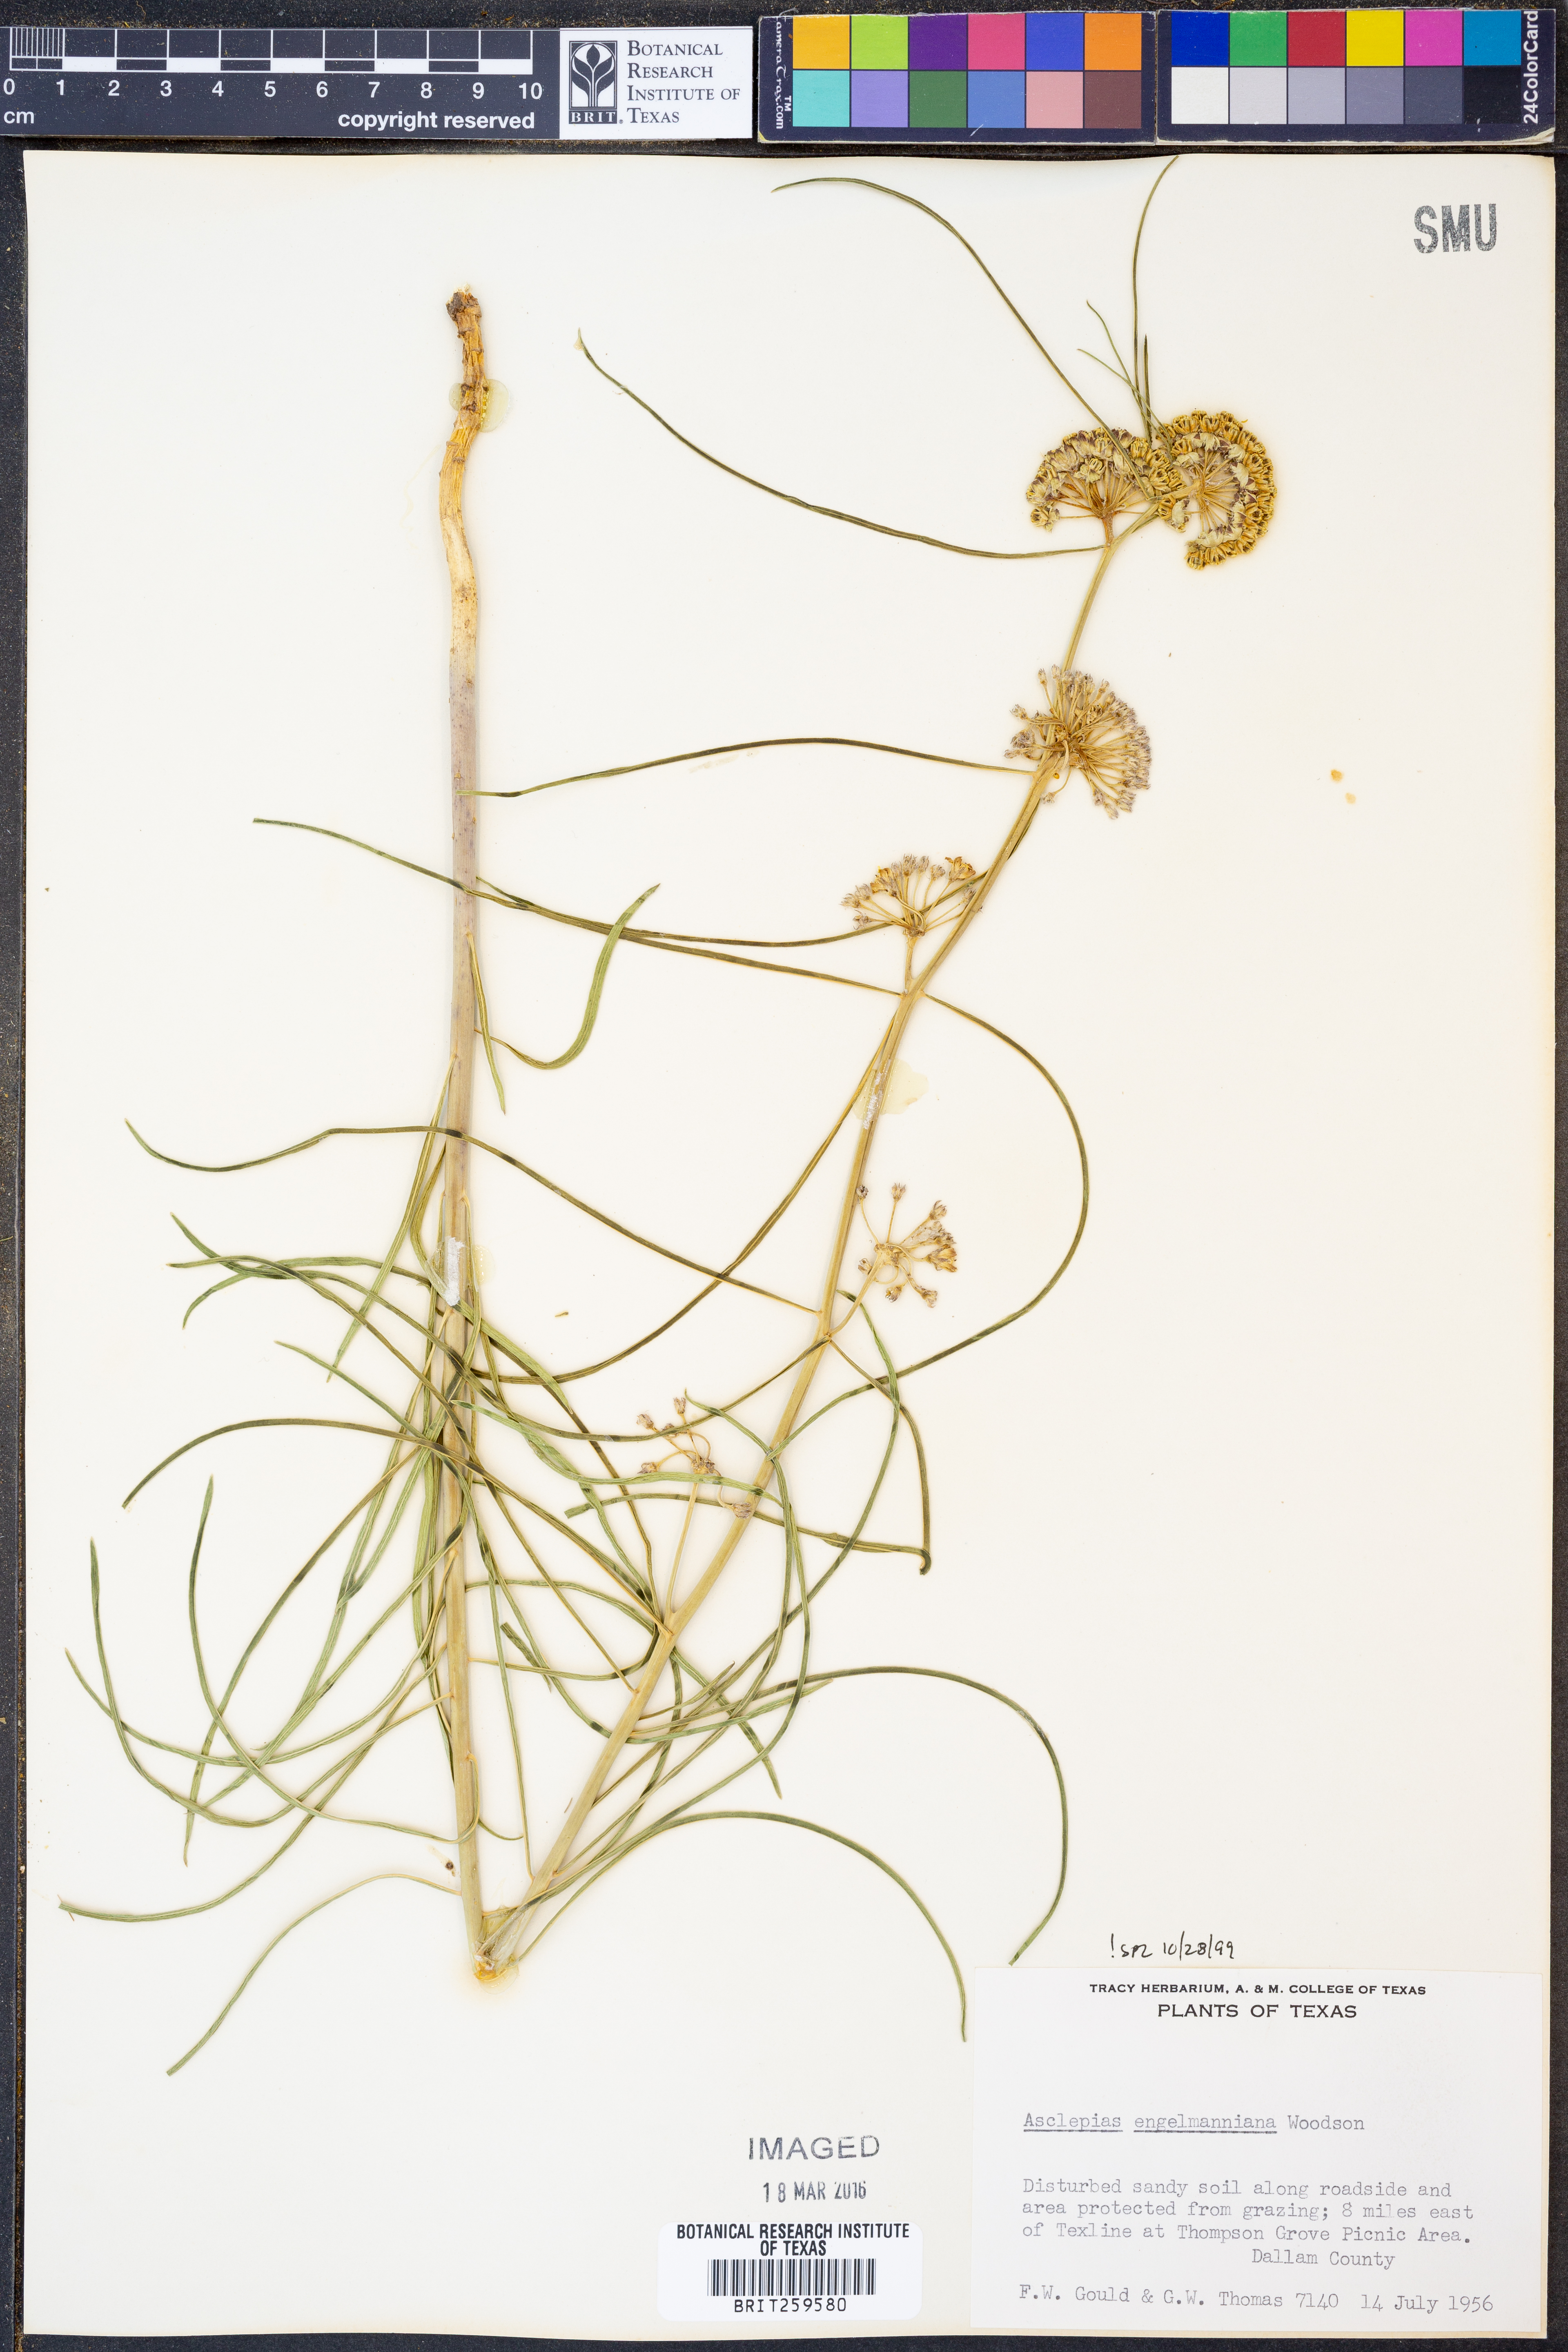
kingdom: Plantae
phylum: Tracheophyta
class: Magnoliopsida
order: Gentianales
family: Apocynaceae
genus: Asclepias
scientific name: Asclepias engelmanniana
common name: Engelmann's milkweed
